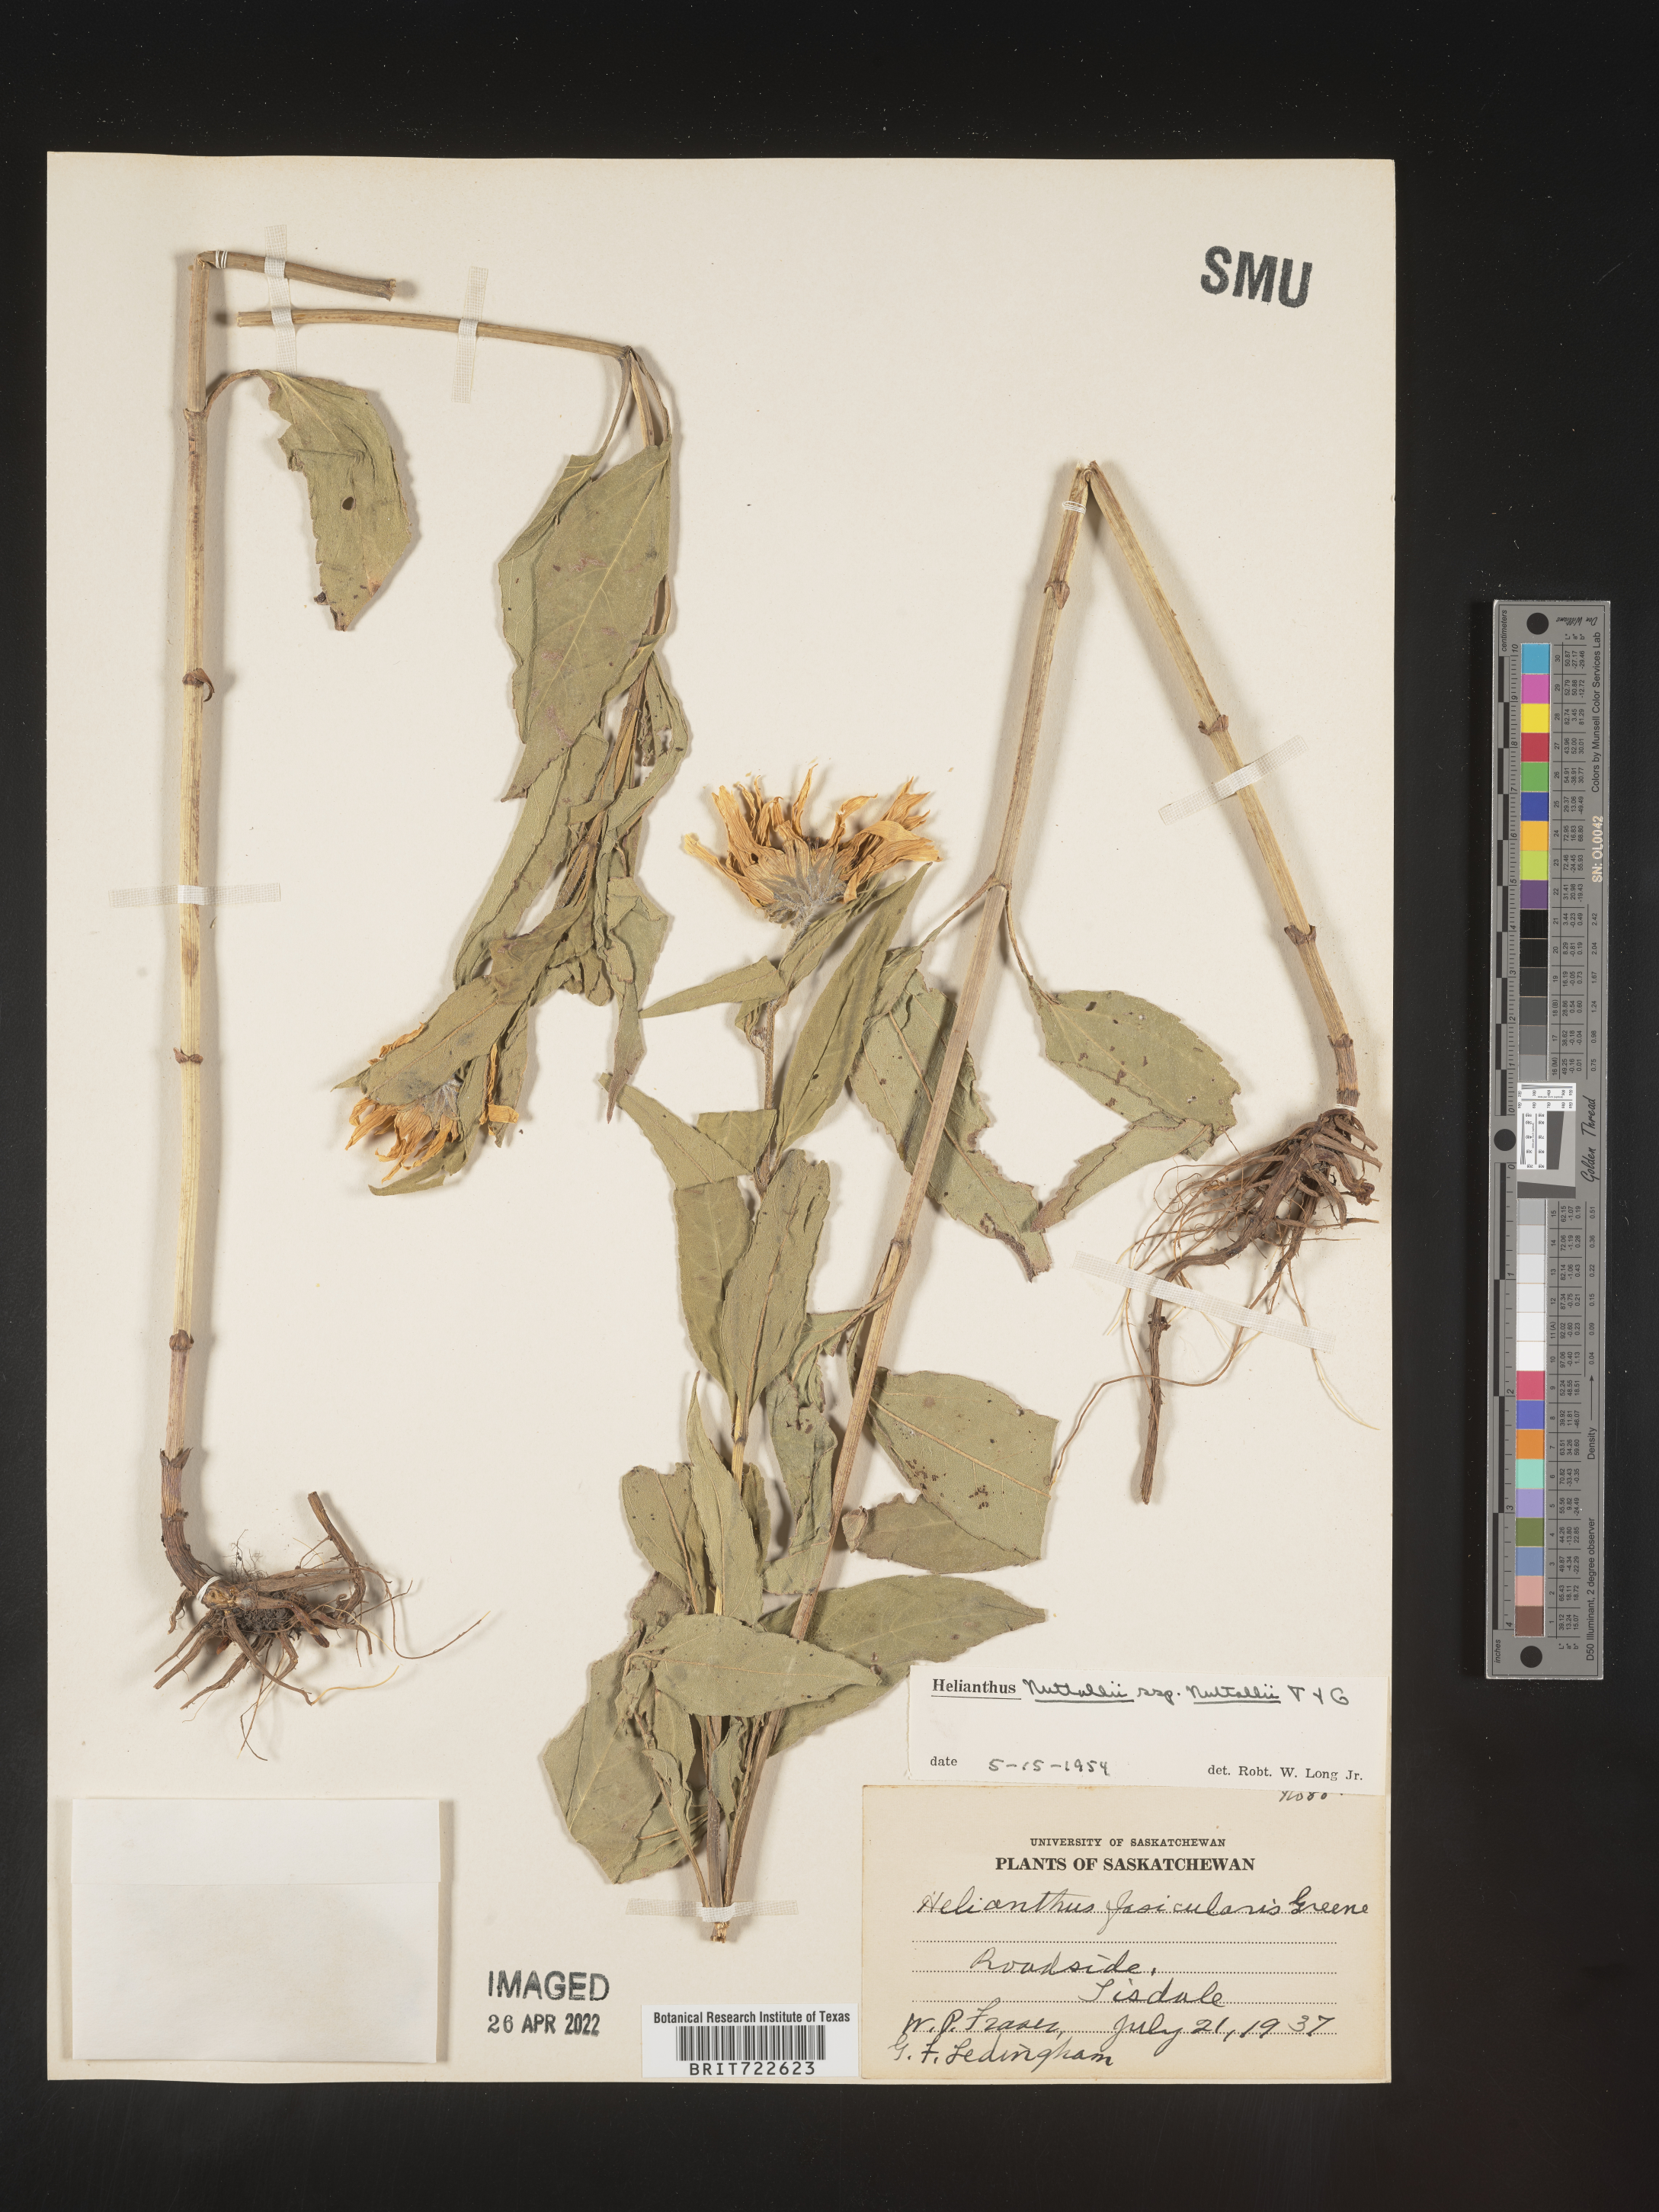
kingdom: Plantae
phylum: Tracheophyta
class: Magnoliopsida
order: Asterales
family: Asteraceae
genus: Helianthus
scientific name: Helianthus nuttallii
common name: Nuttall's sunflower
